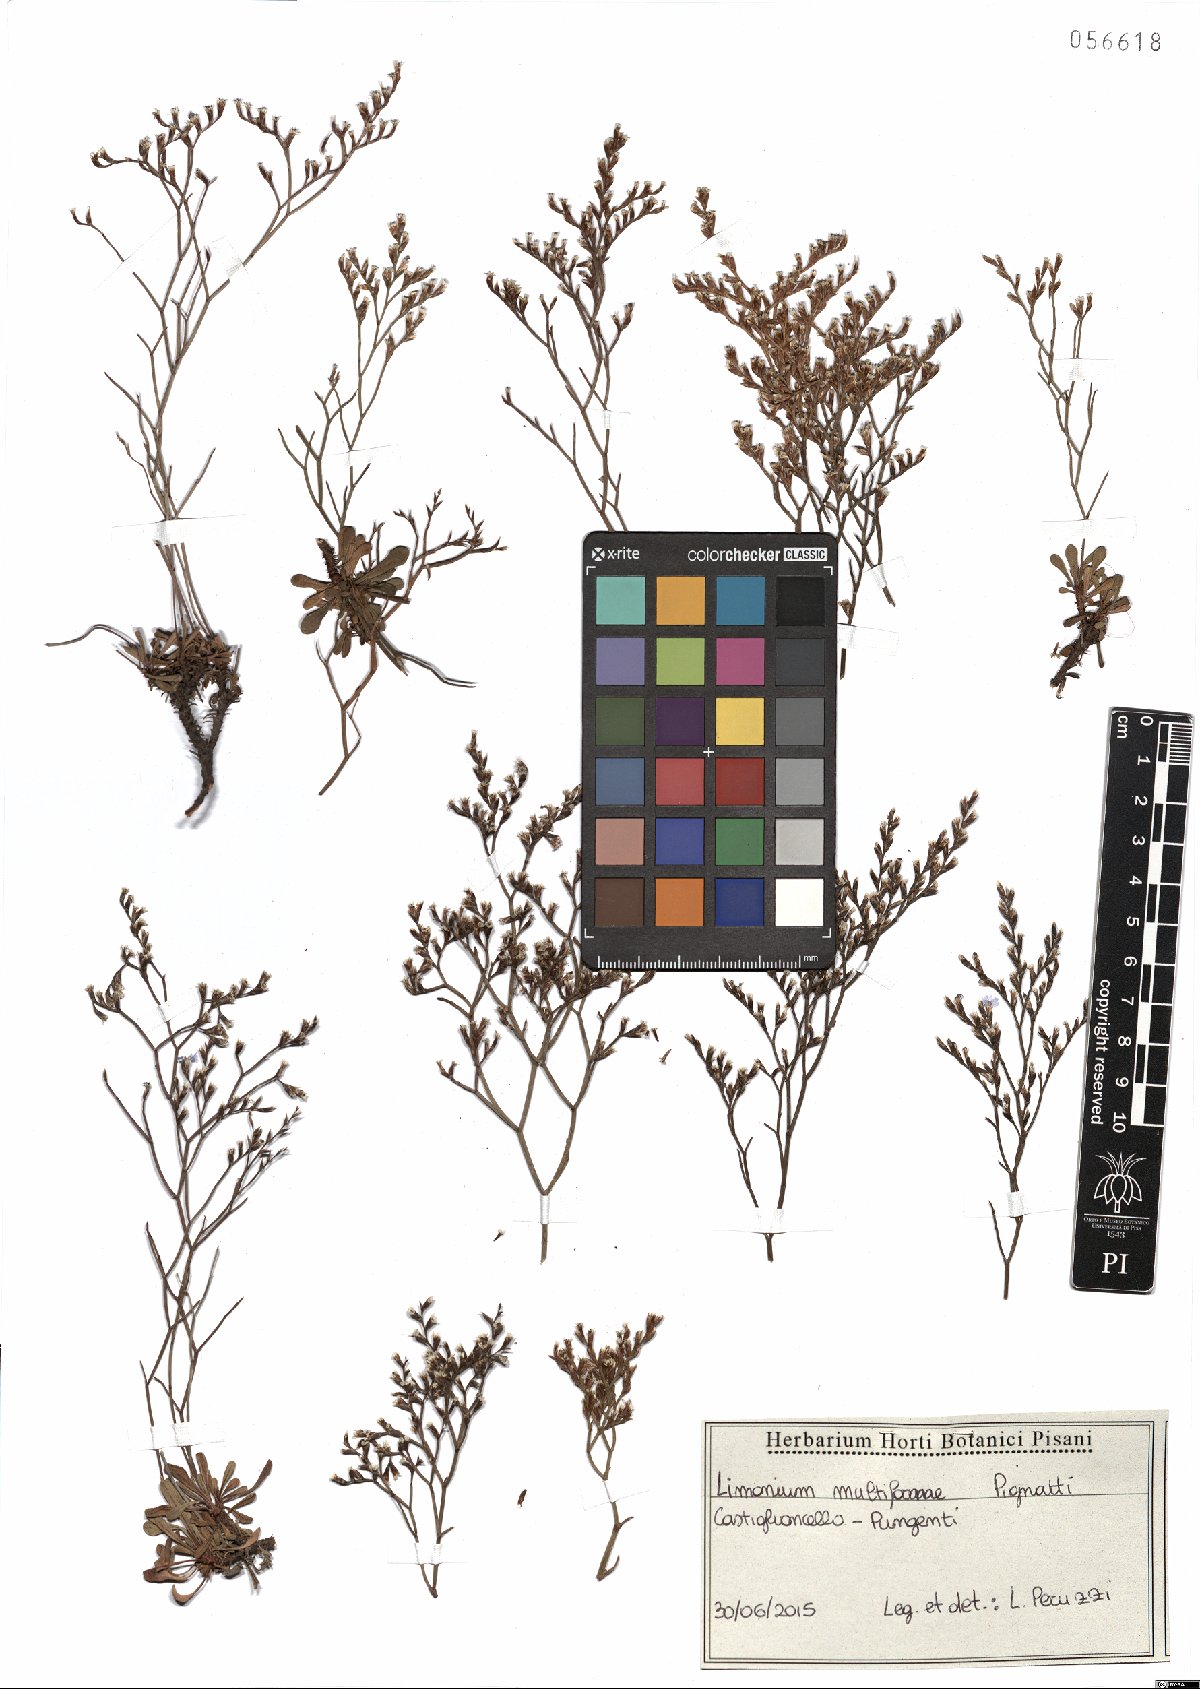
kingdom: Plantae
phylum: Tracheophyta
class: Magnoliopsida
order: Caryophyllales
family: Plumbaginaceae
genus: Limonium
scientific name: Limonium multiforme
